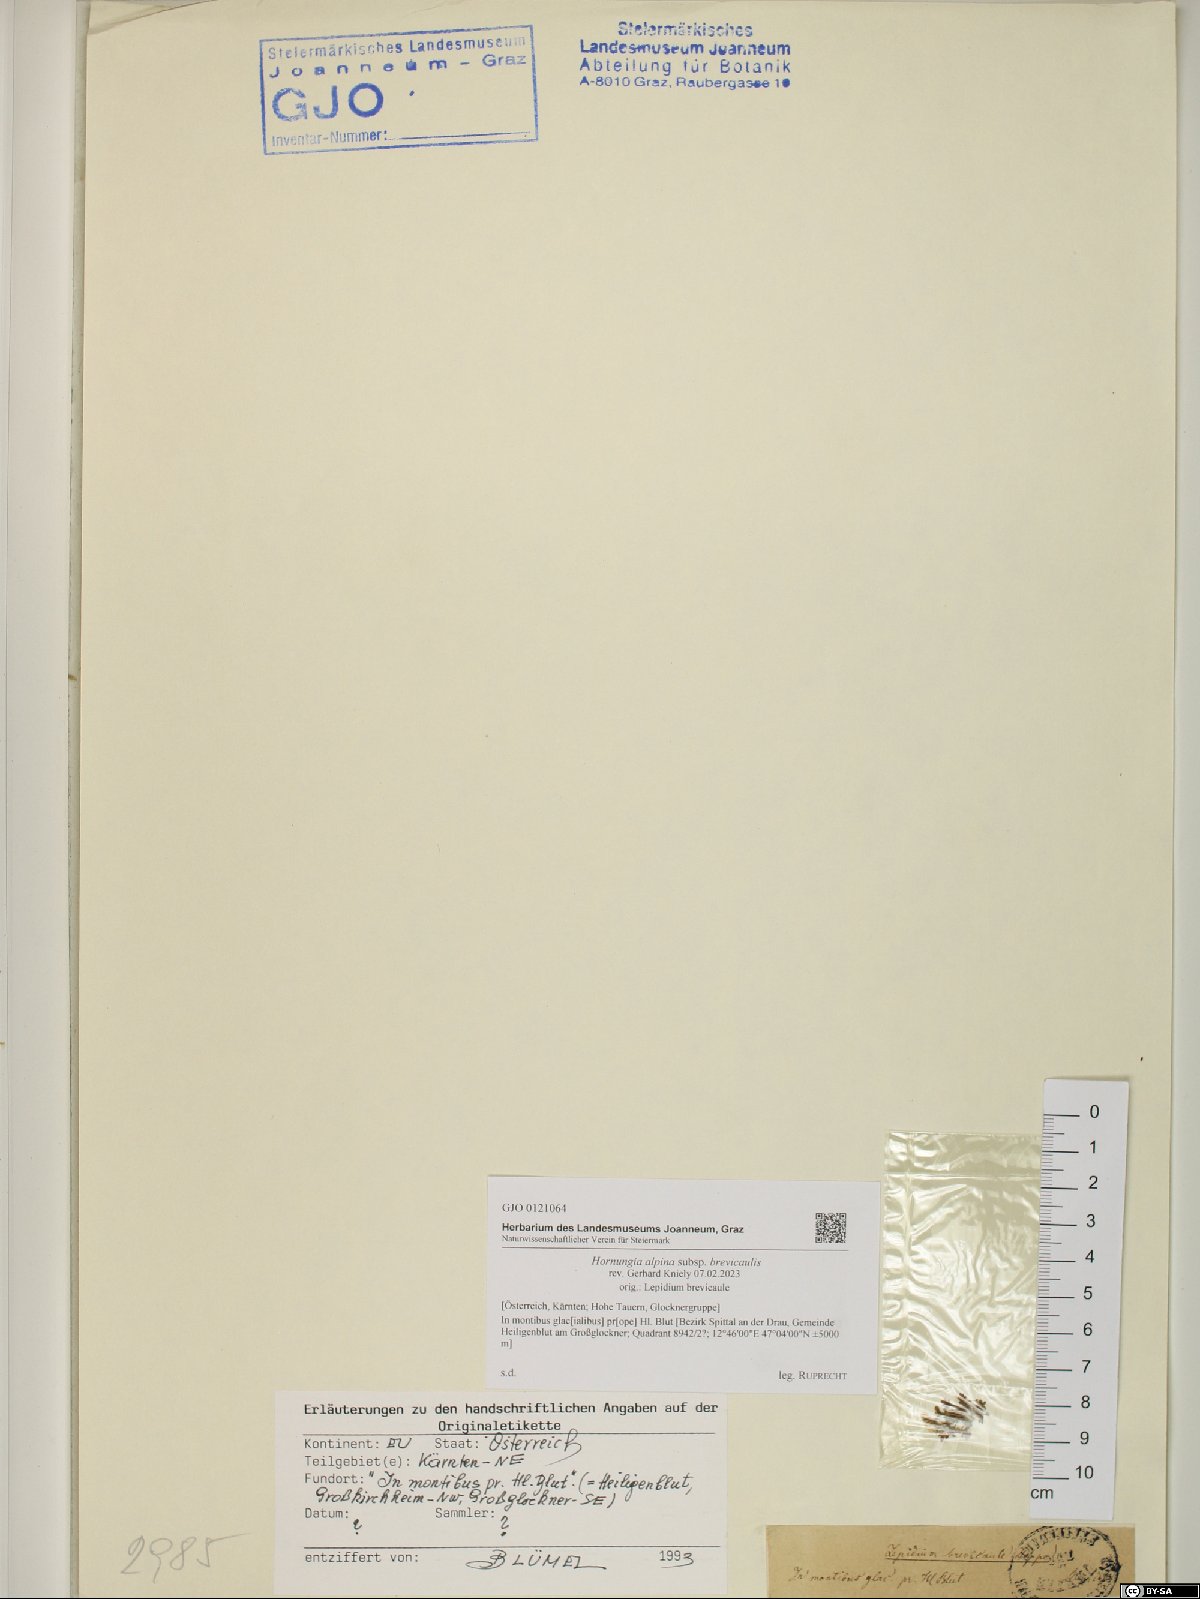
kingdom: Plantae
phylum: Tracheophyta
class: Magnoliopsida
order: Brassicales
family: Brassicaceae
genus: Hornungia
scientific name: Hornungia alpina
